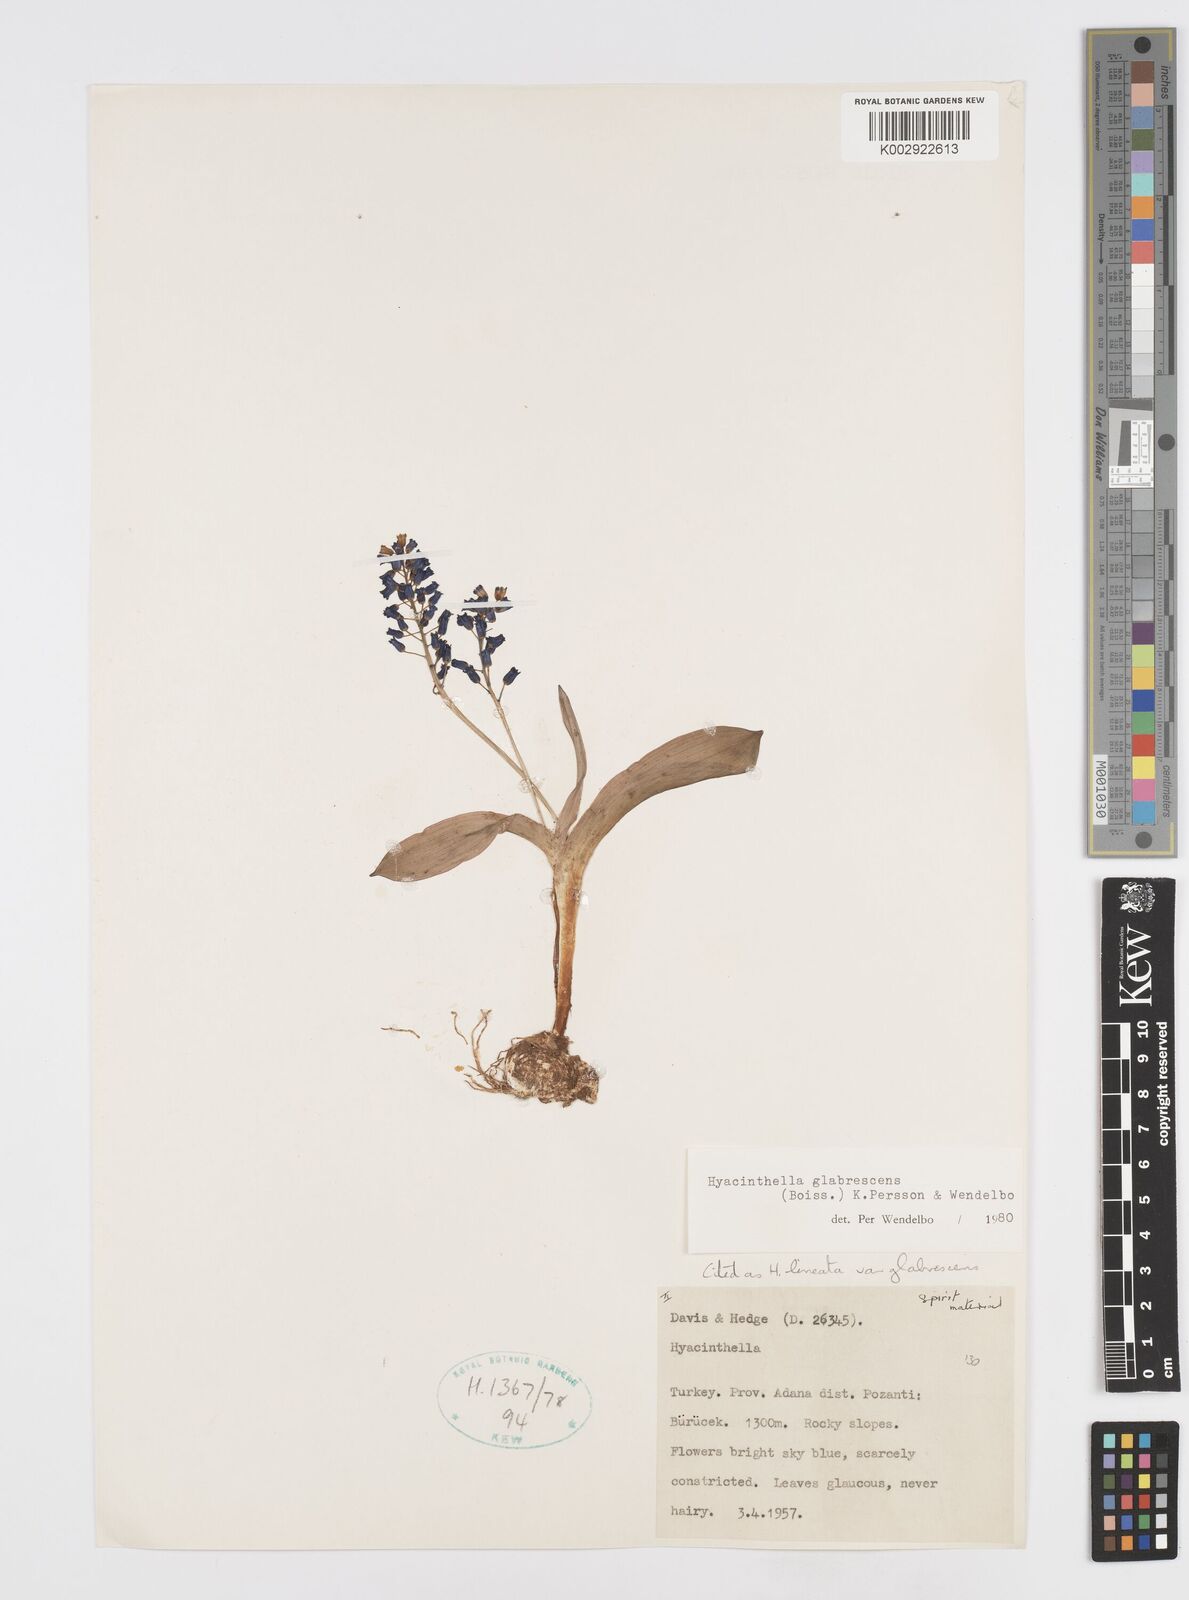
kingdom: Plantae
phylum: Tracheophyta
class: Liliopsida
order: Asparagales
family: Asparagaceae
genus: Hyacinthella
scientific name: Hyacinthella glabrescens
